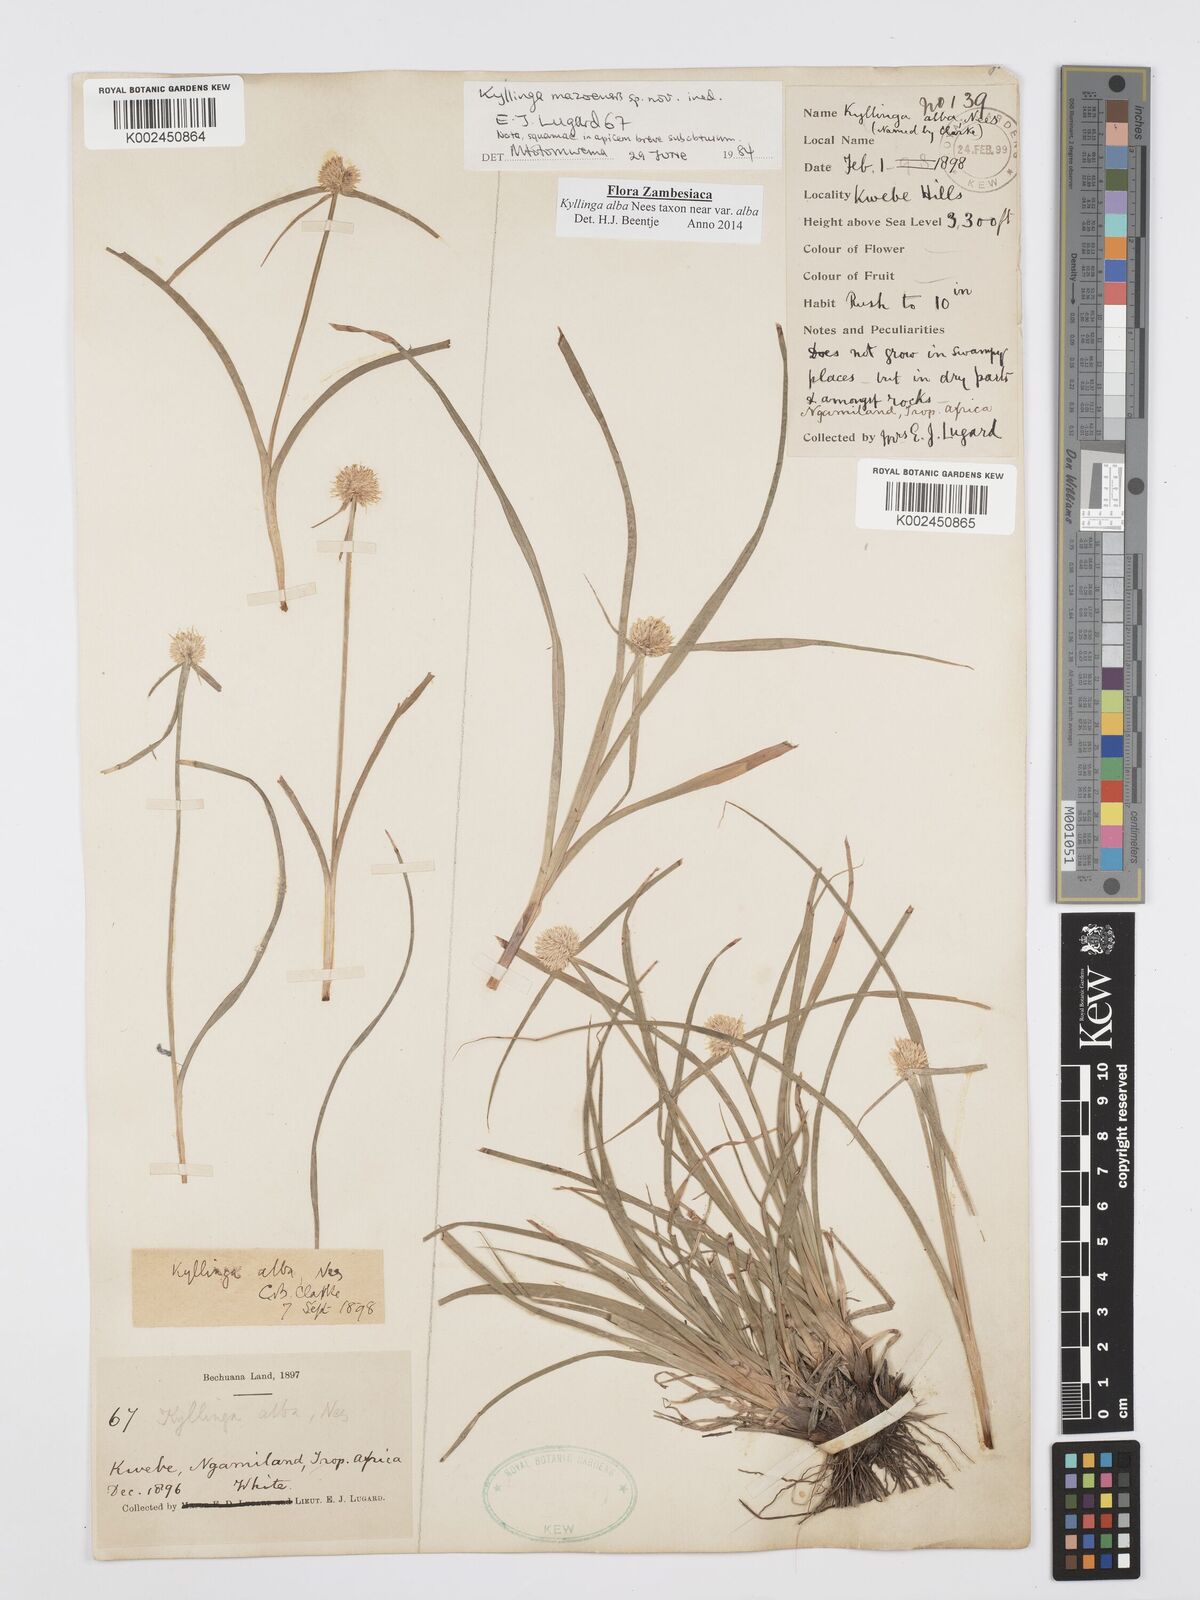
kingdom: Plantae
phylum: Tracheophyta
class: Liliopsida
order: Poales
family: Cyperaceae
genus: Cyperus
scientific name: Cyperus
